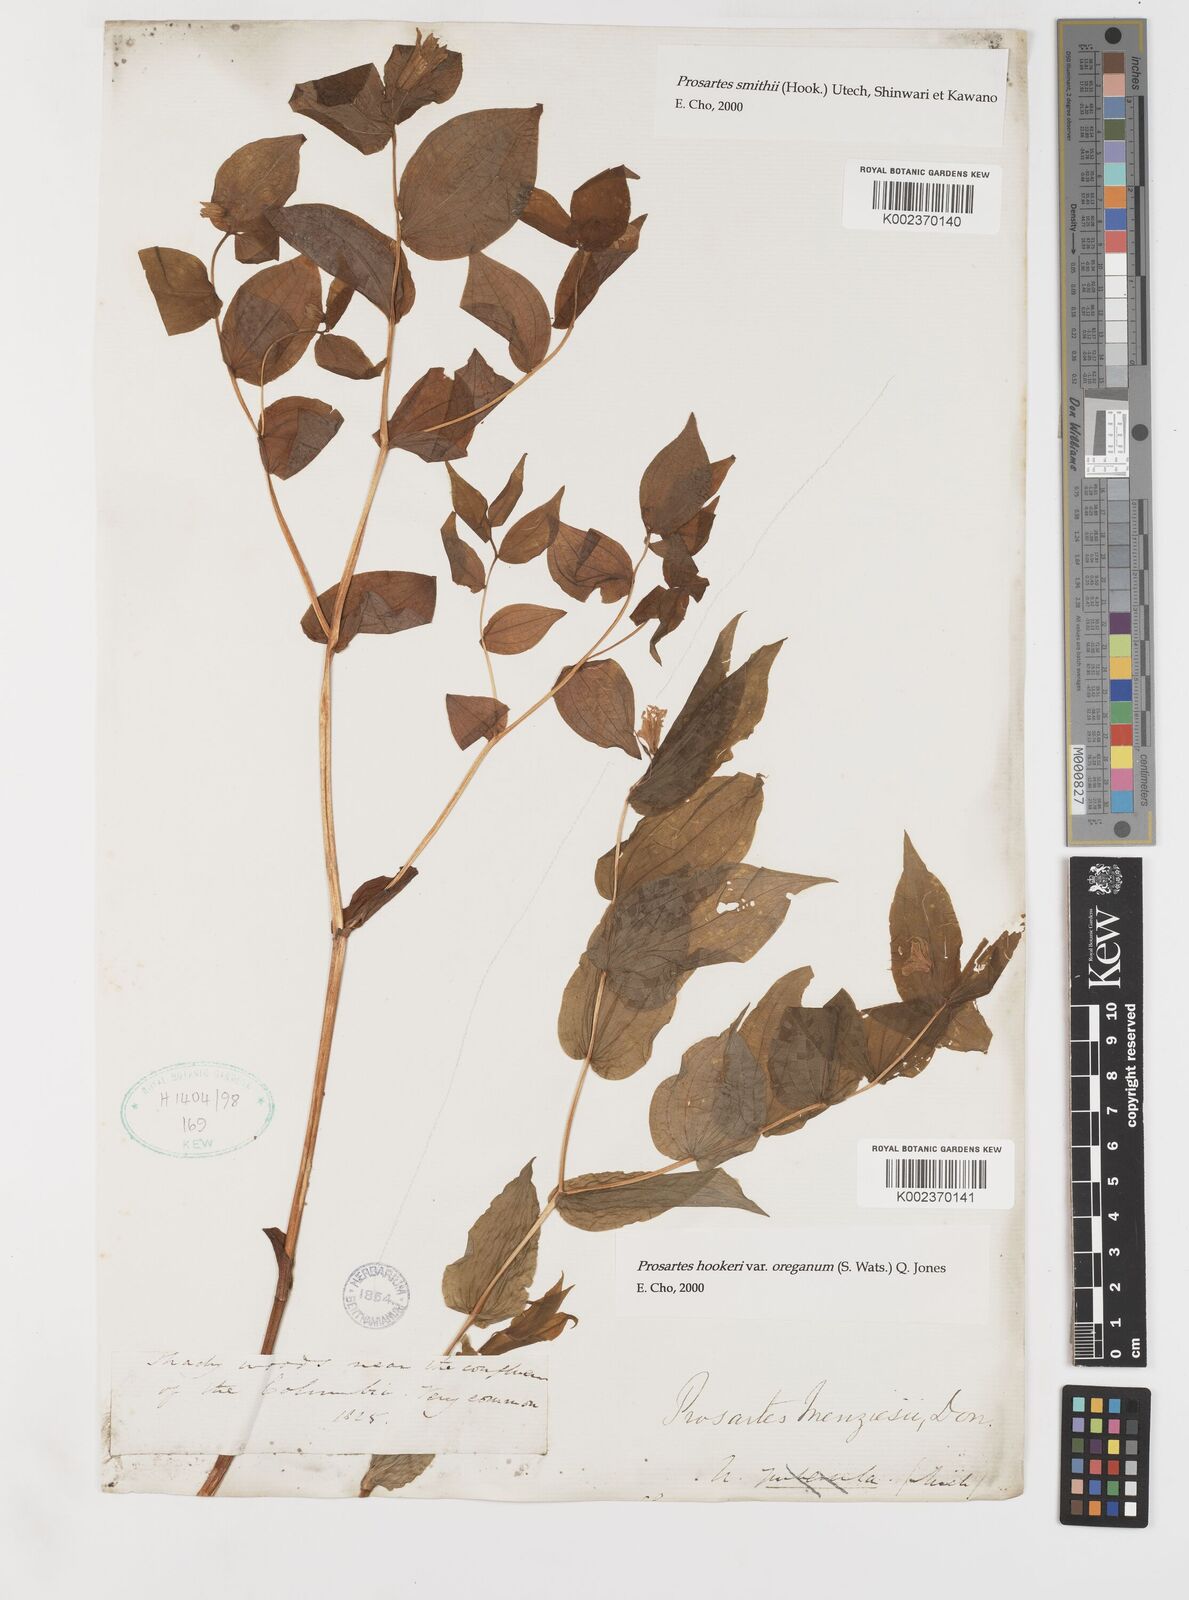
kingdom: Plantae
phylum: Tracheophyta
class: Liliopsida
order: Liliales
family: Liliaceae
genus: Prosartes
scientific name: Prosartes hookeri
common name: Fairy-bells
